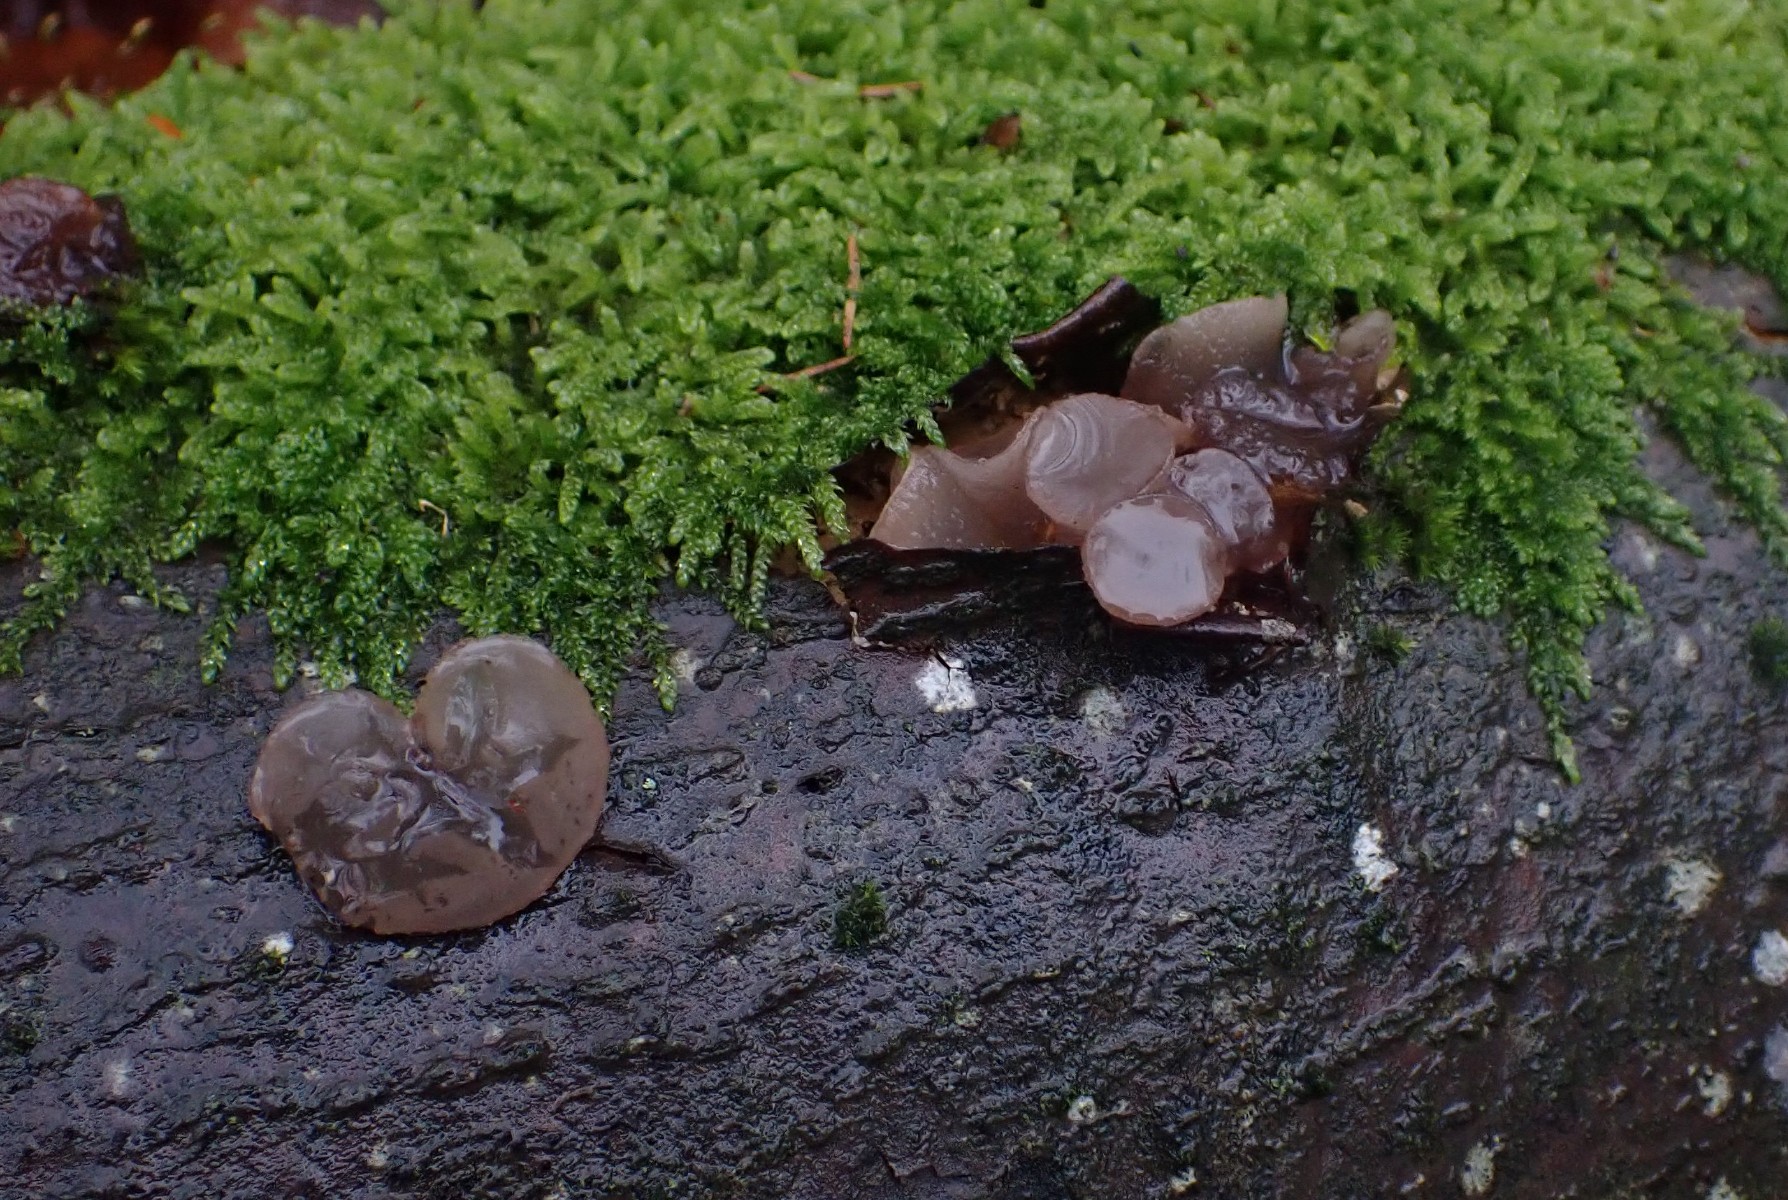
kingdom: Fungi
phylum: Ascomycota
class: Leotiomycetes
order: Helotiales
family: Gelatinodiscaceae
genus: Neobulgaria
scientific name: Neobulgaria pura
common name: bleg bævreskive
